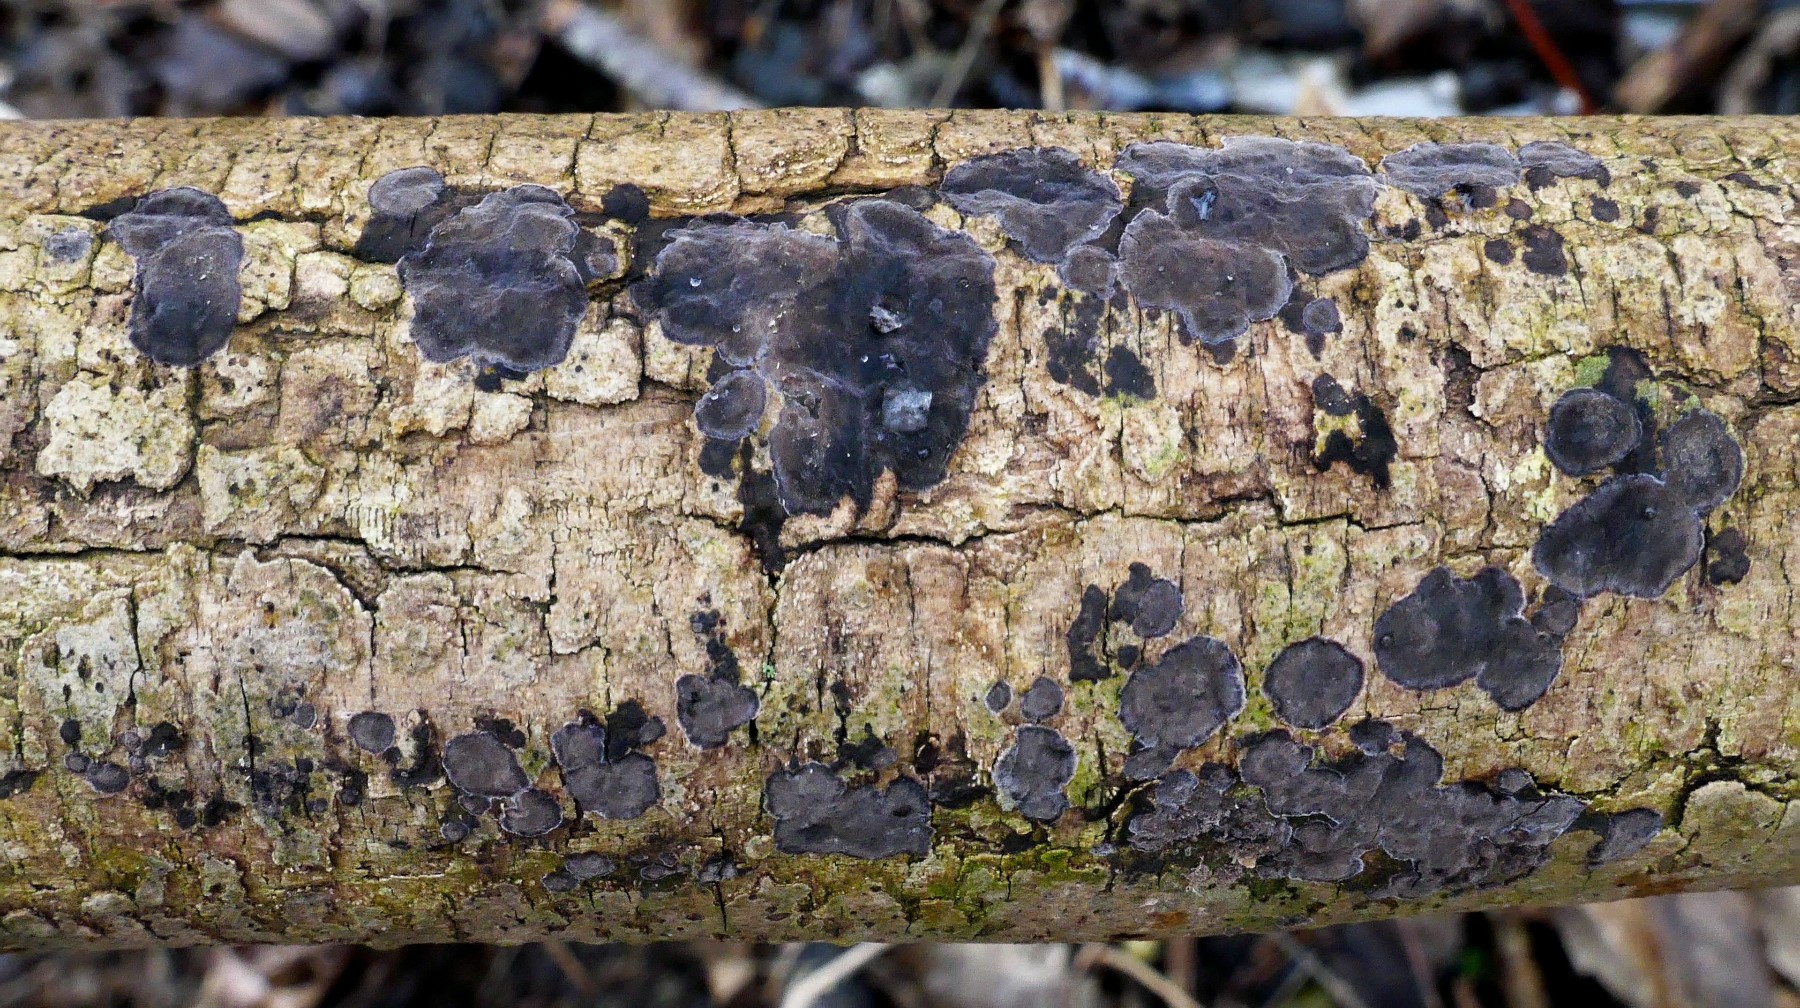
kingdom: Fungi
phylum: Basidiomycota
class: Agaricomycetes
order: Russulales
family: Peniophoraceae
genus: Peniophora
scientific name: Peniophora limitata
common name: mørkrandet voksskind
